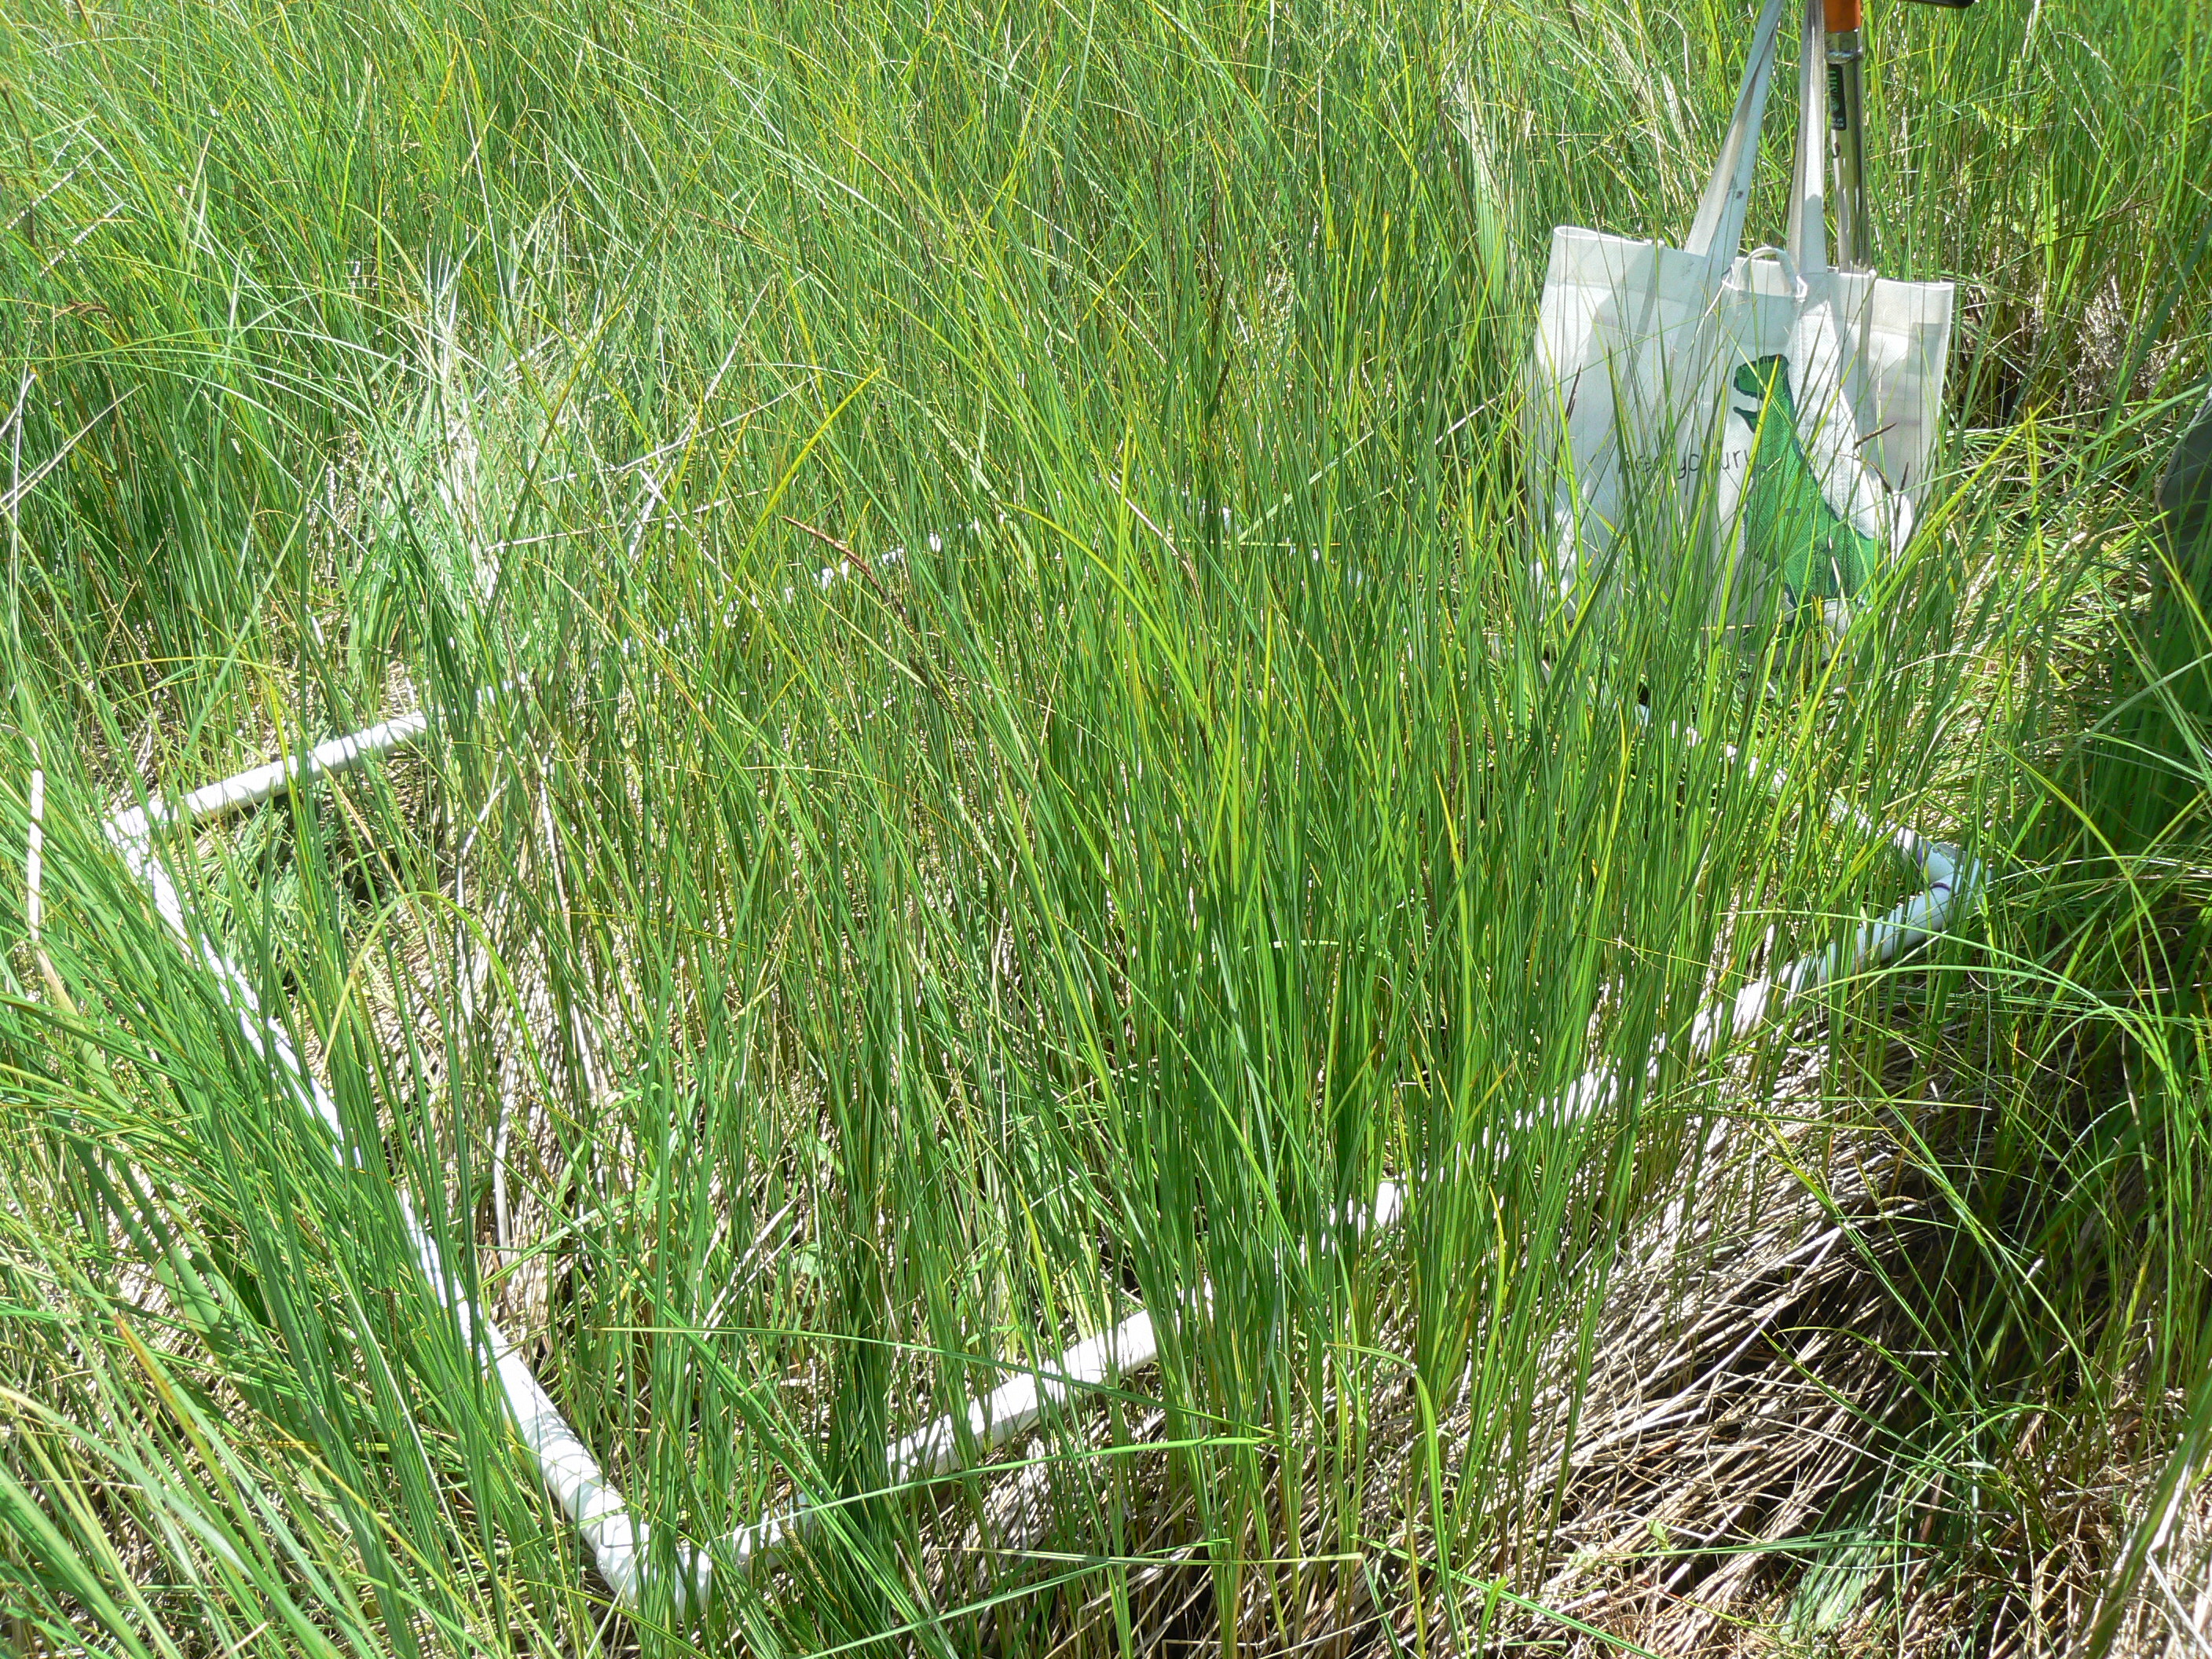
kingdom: Plantae
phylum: Tracheophyta
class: Magnoliopsida
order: Ericales
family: Balsaminaceae
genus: Impatiens
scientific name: Impatiens capensis
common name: Orange balsam
